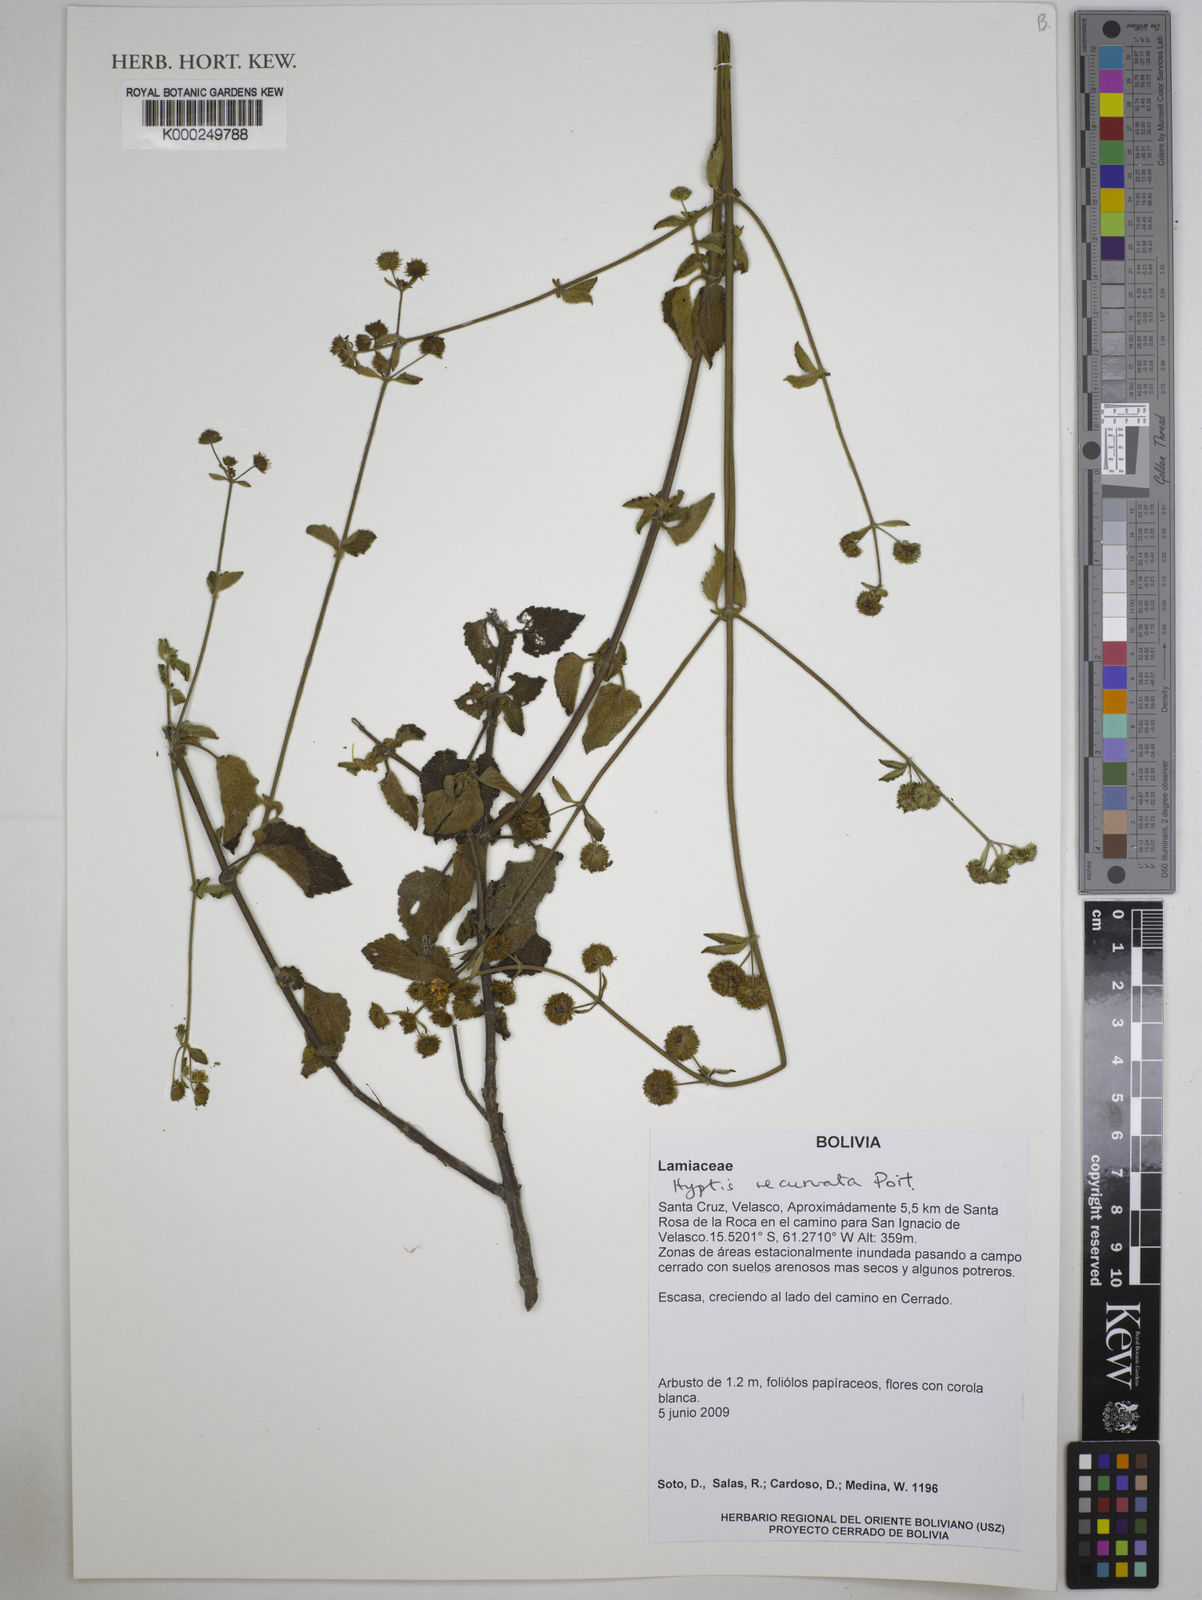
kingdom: Plantae
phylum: Tracheophyta
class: Magnoliopsida
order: Lamiales
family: Lamiaceae
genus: Hyptis
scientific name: Hyptis recurvata
